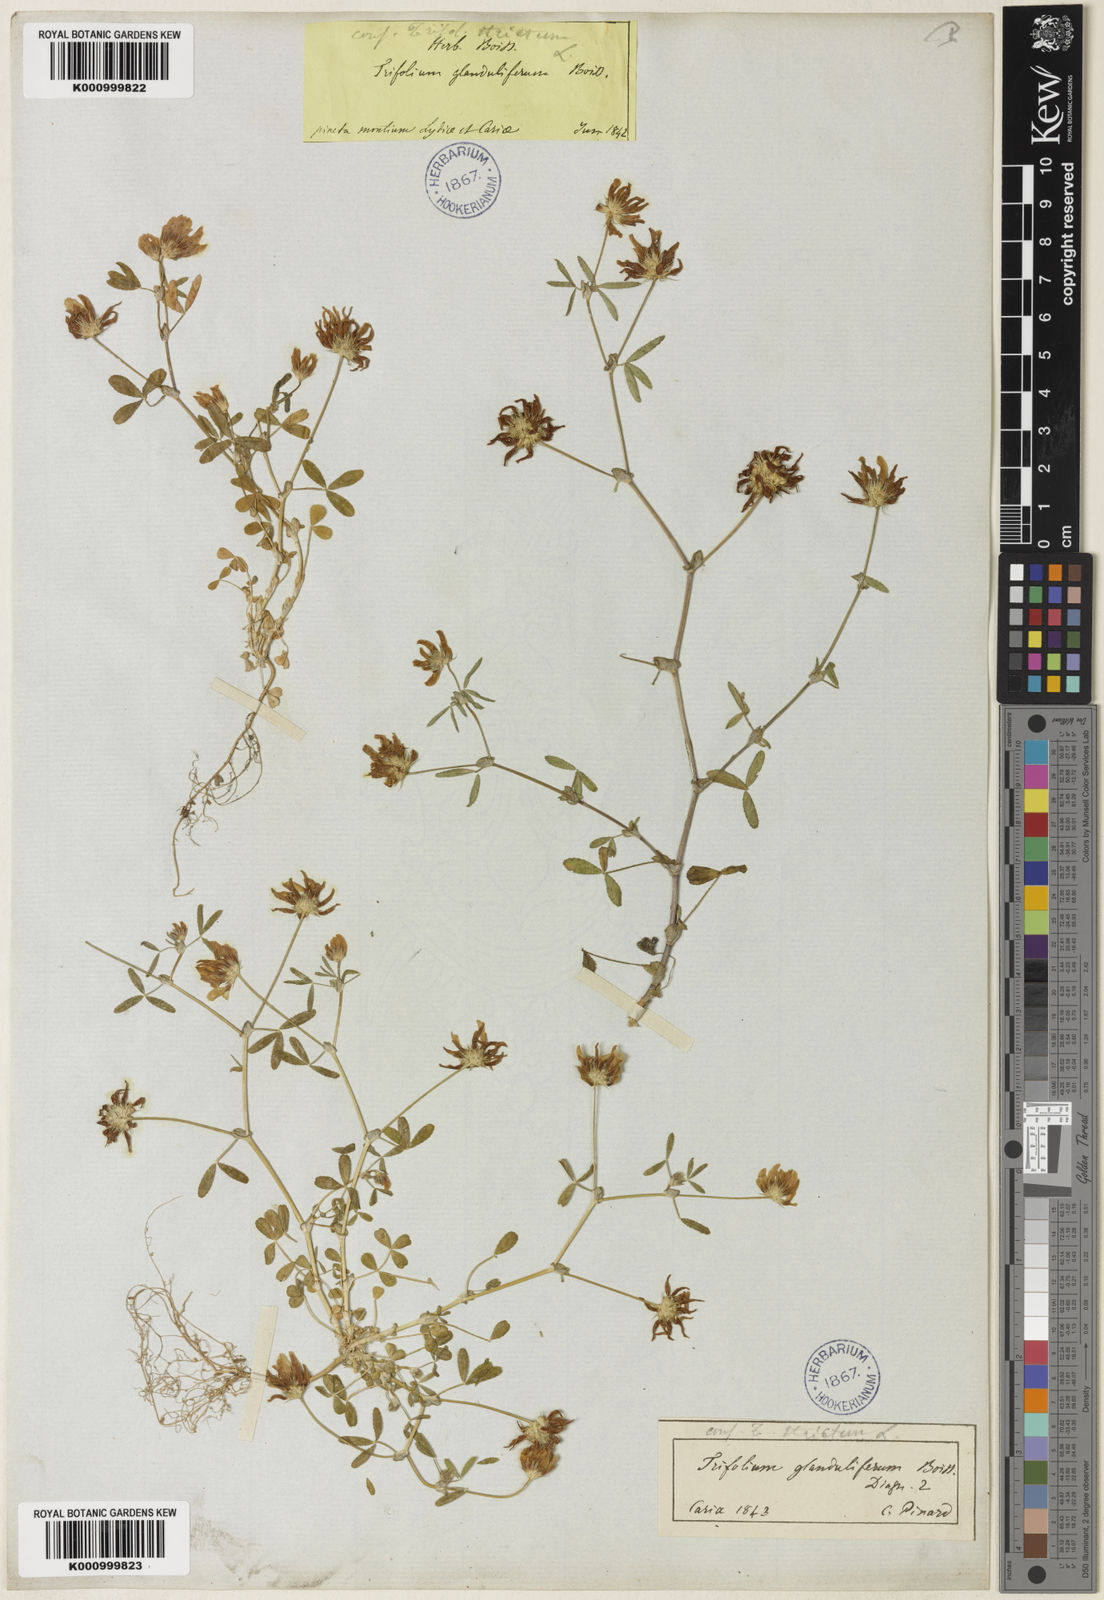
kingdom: Plantae
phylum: Tracheophyta
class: Magnoliopsida
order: Fabales
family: Fabaceae
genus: Trifolium
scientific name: Trifolium glanduliferum
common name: Glandular clover
